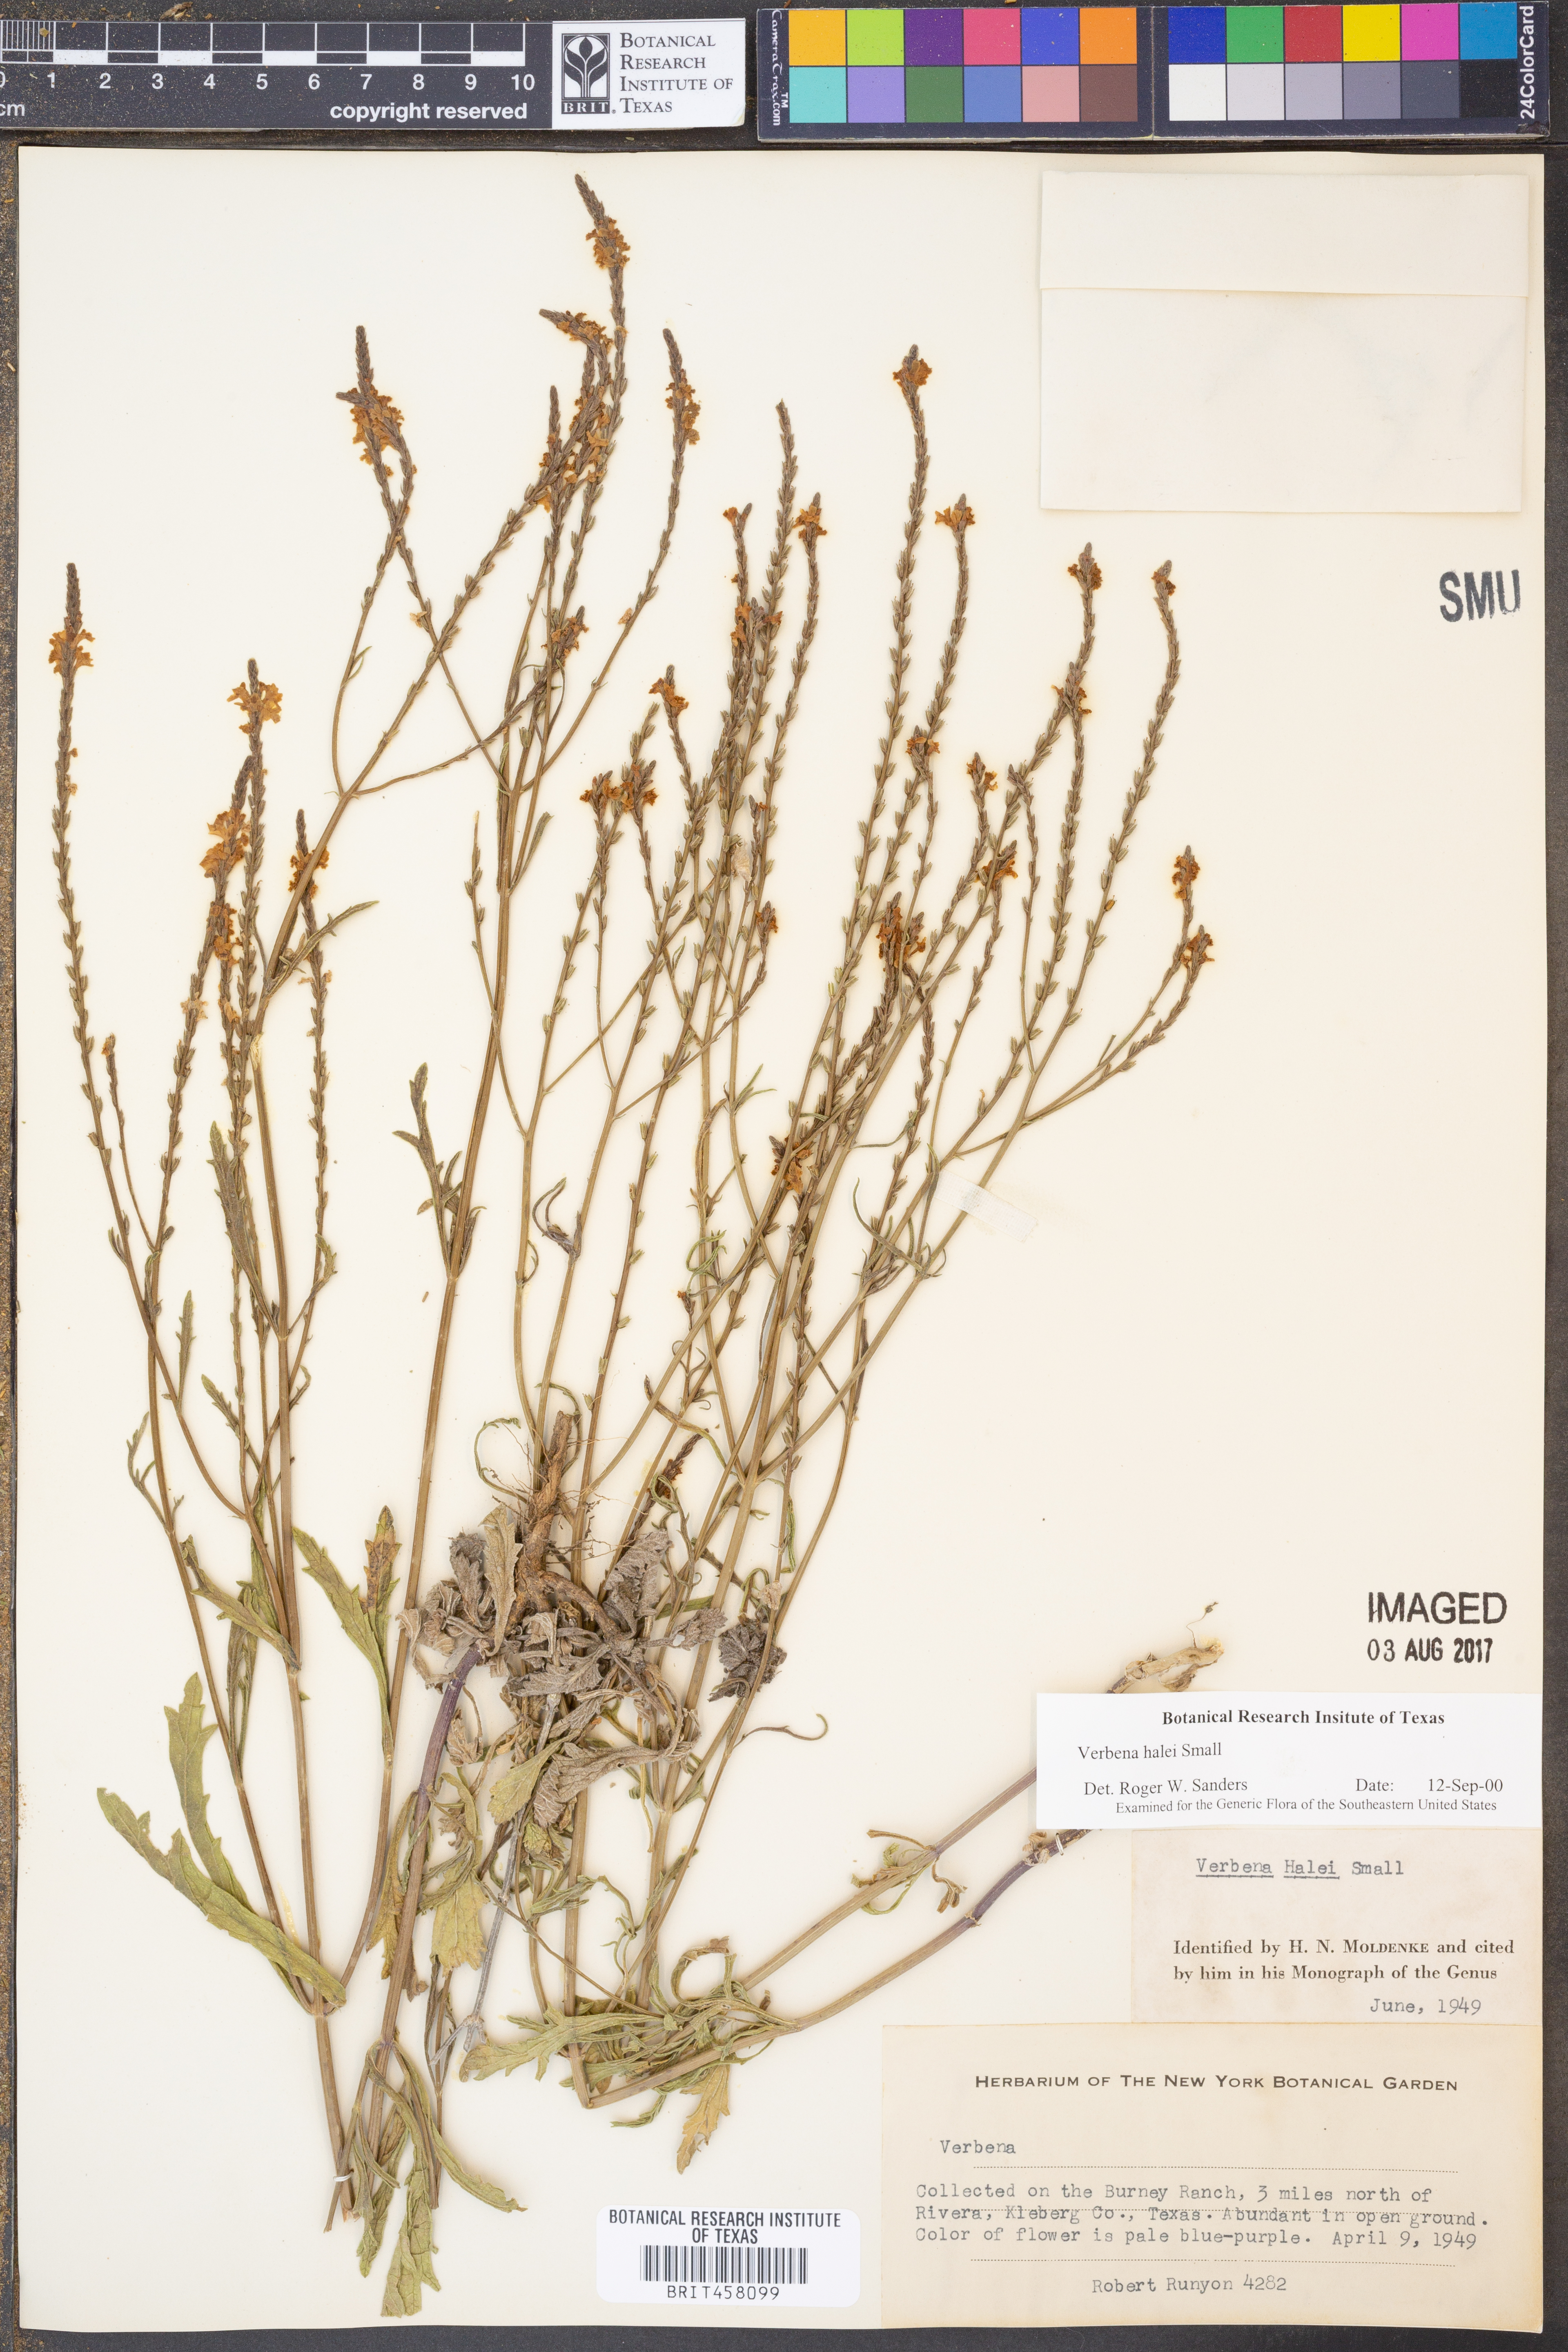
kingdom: Plantae
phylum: Tracheophyta
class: Magnoliopsida
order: Lamiales
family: Verbenaceae
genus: Verbena
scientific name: Verbena halei
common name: Texas vervain
